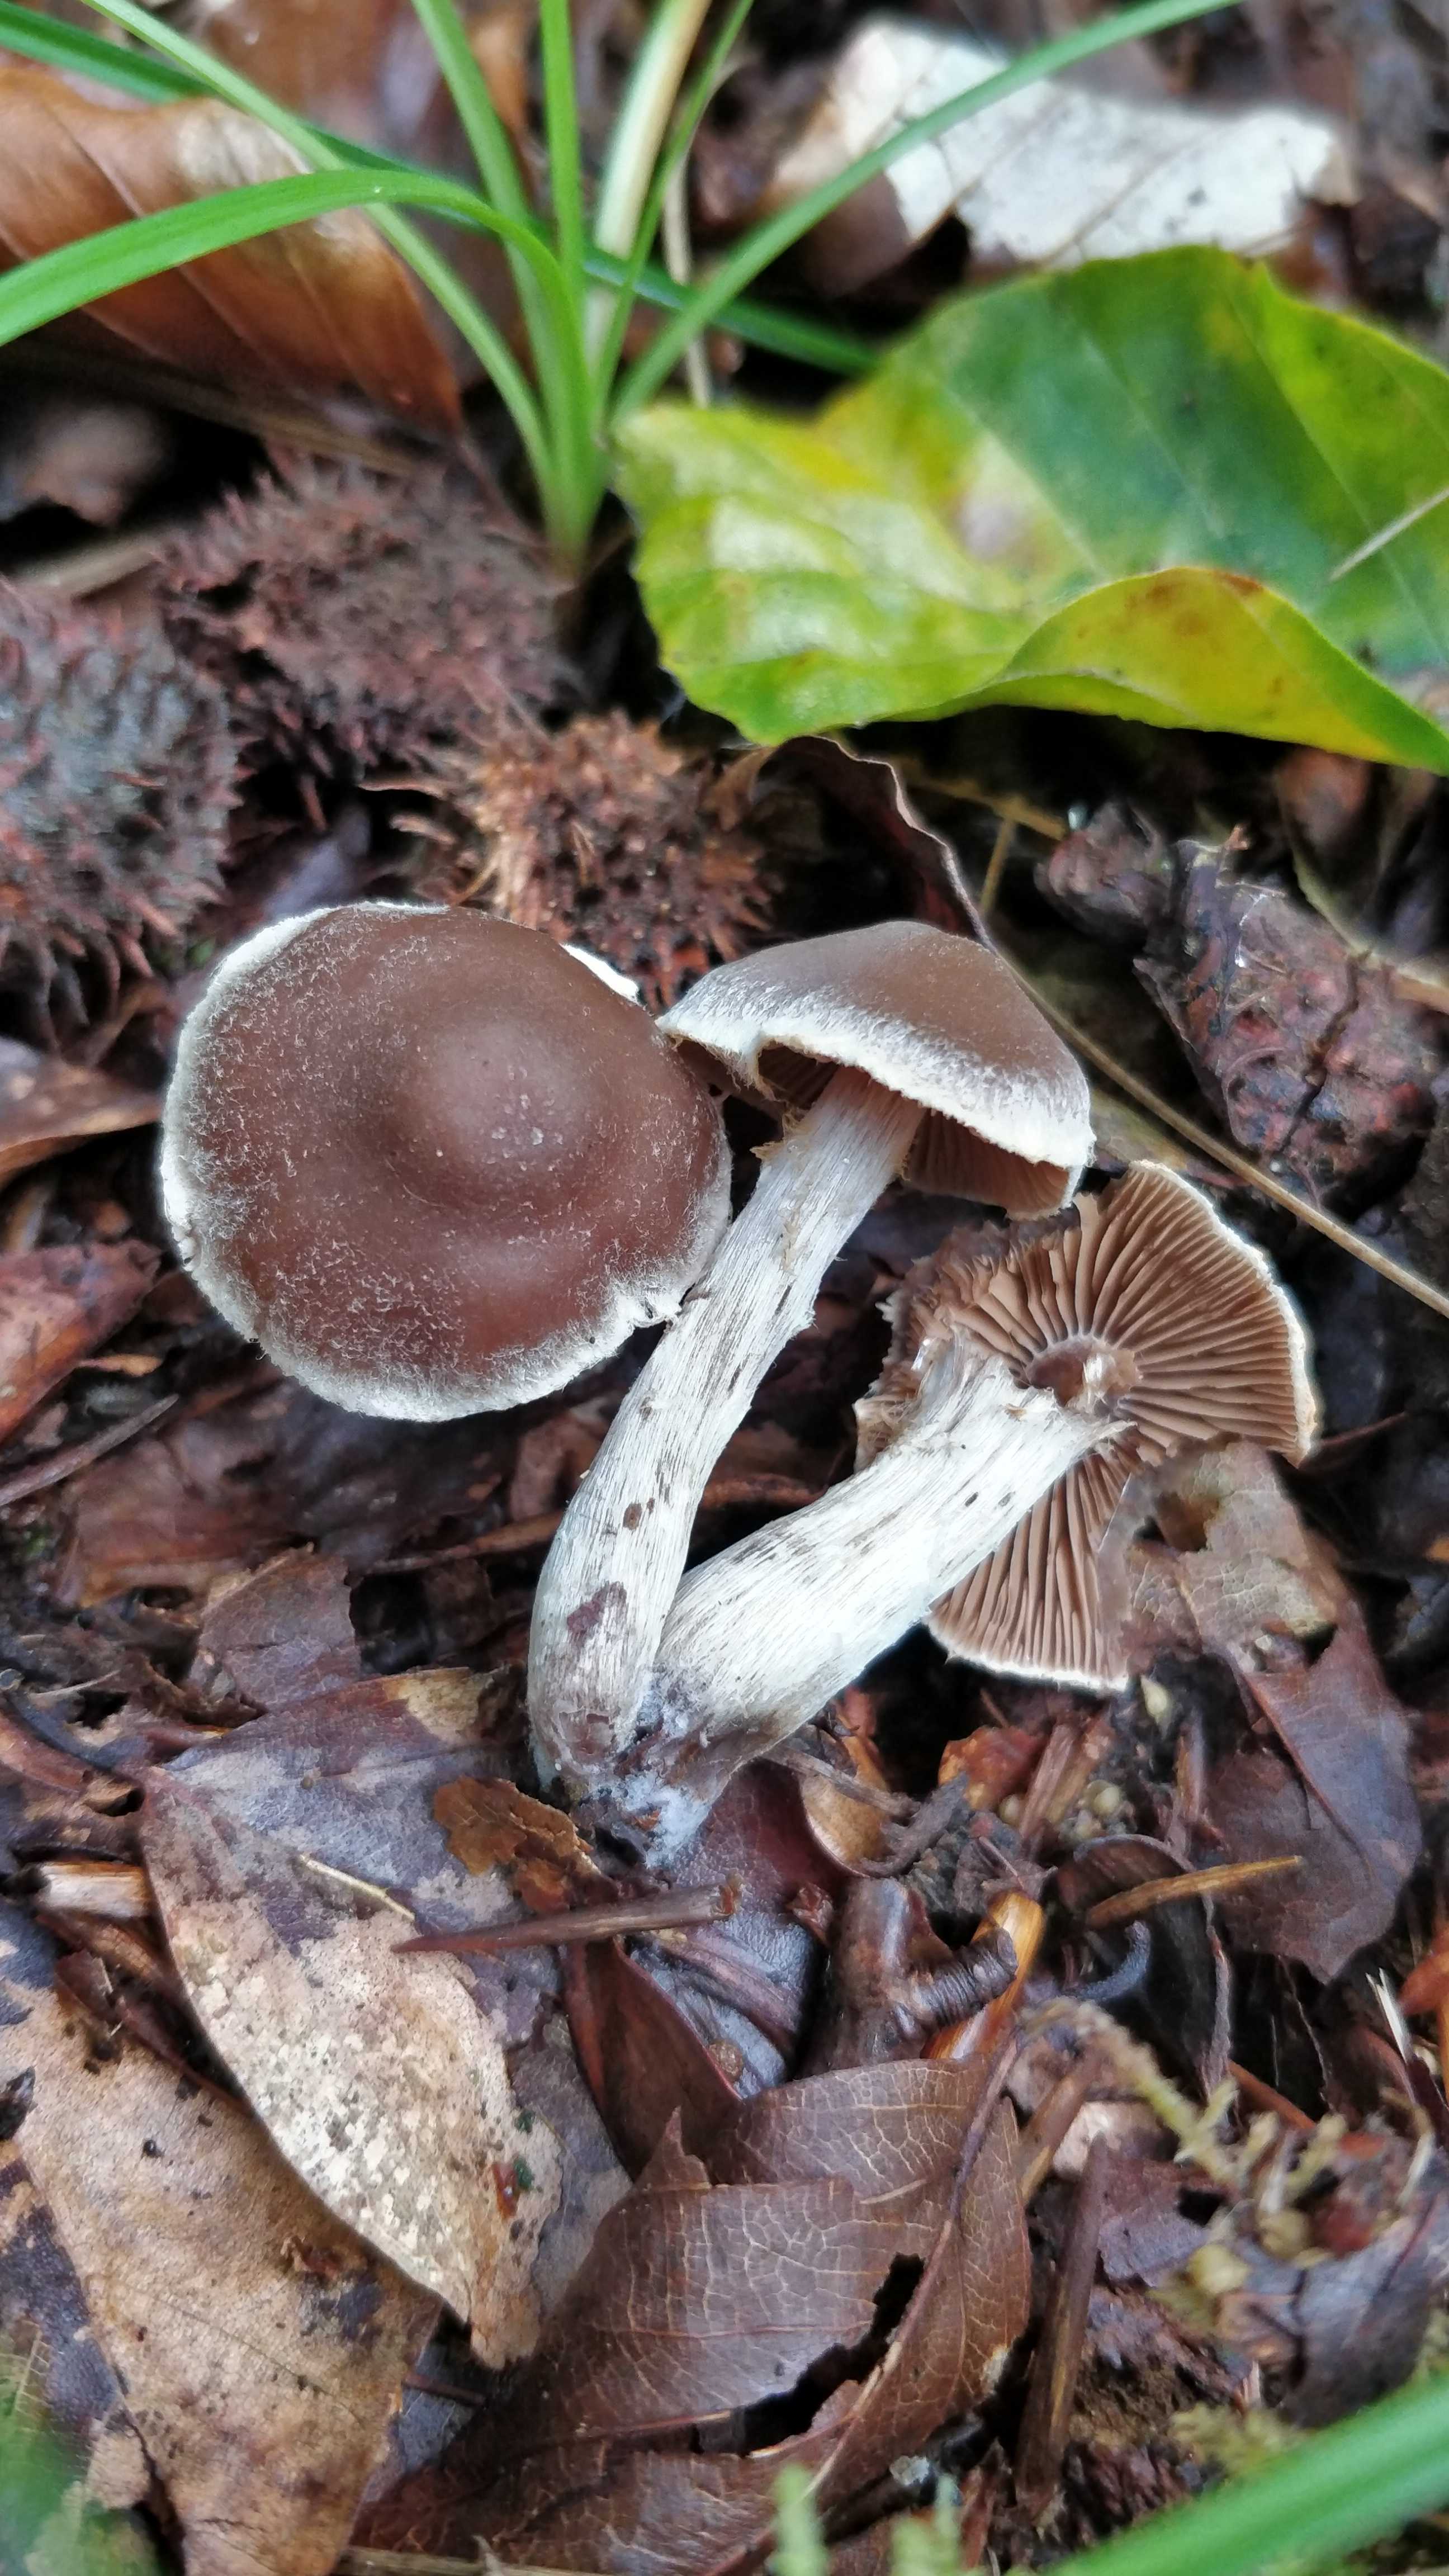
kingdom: Fungi
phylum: Basidiomycota
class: Agaricomycetes
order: Agaricales
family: Cortinariaceae
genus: Cortinarius
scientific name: Cortinarius
